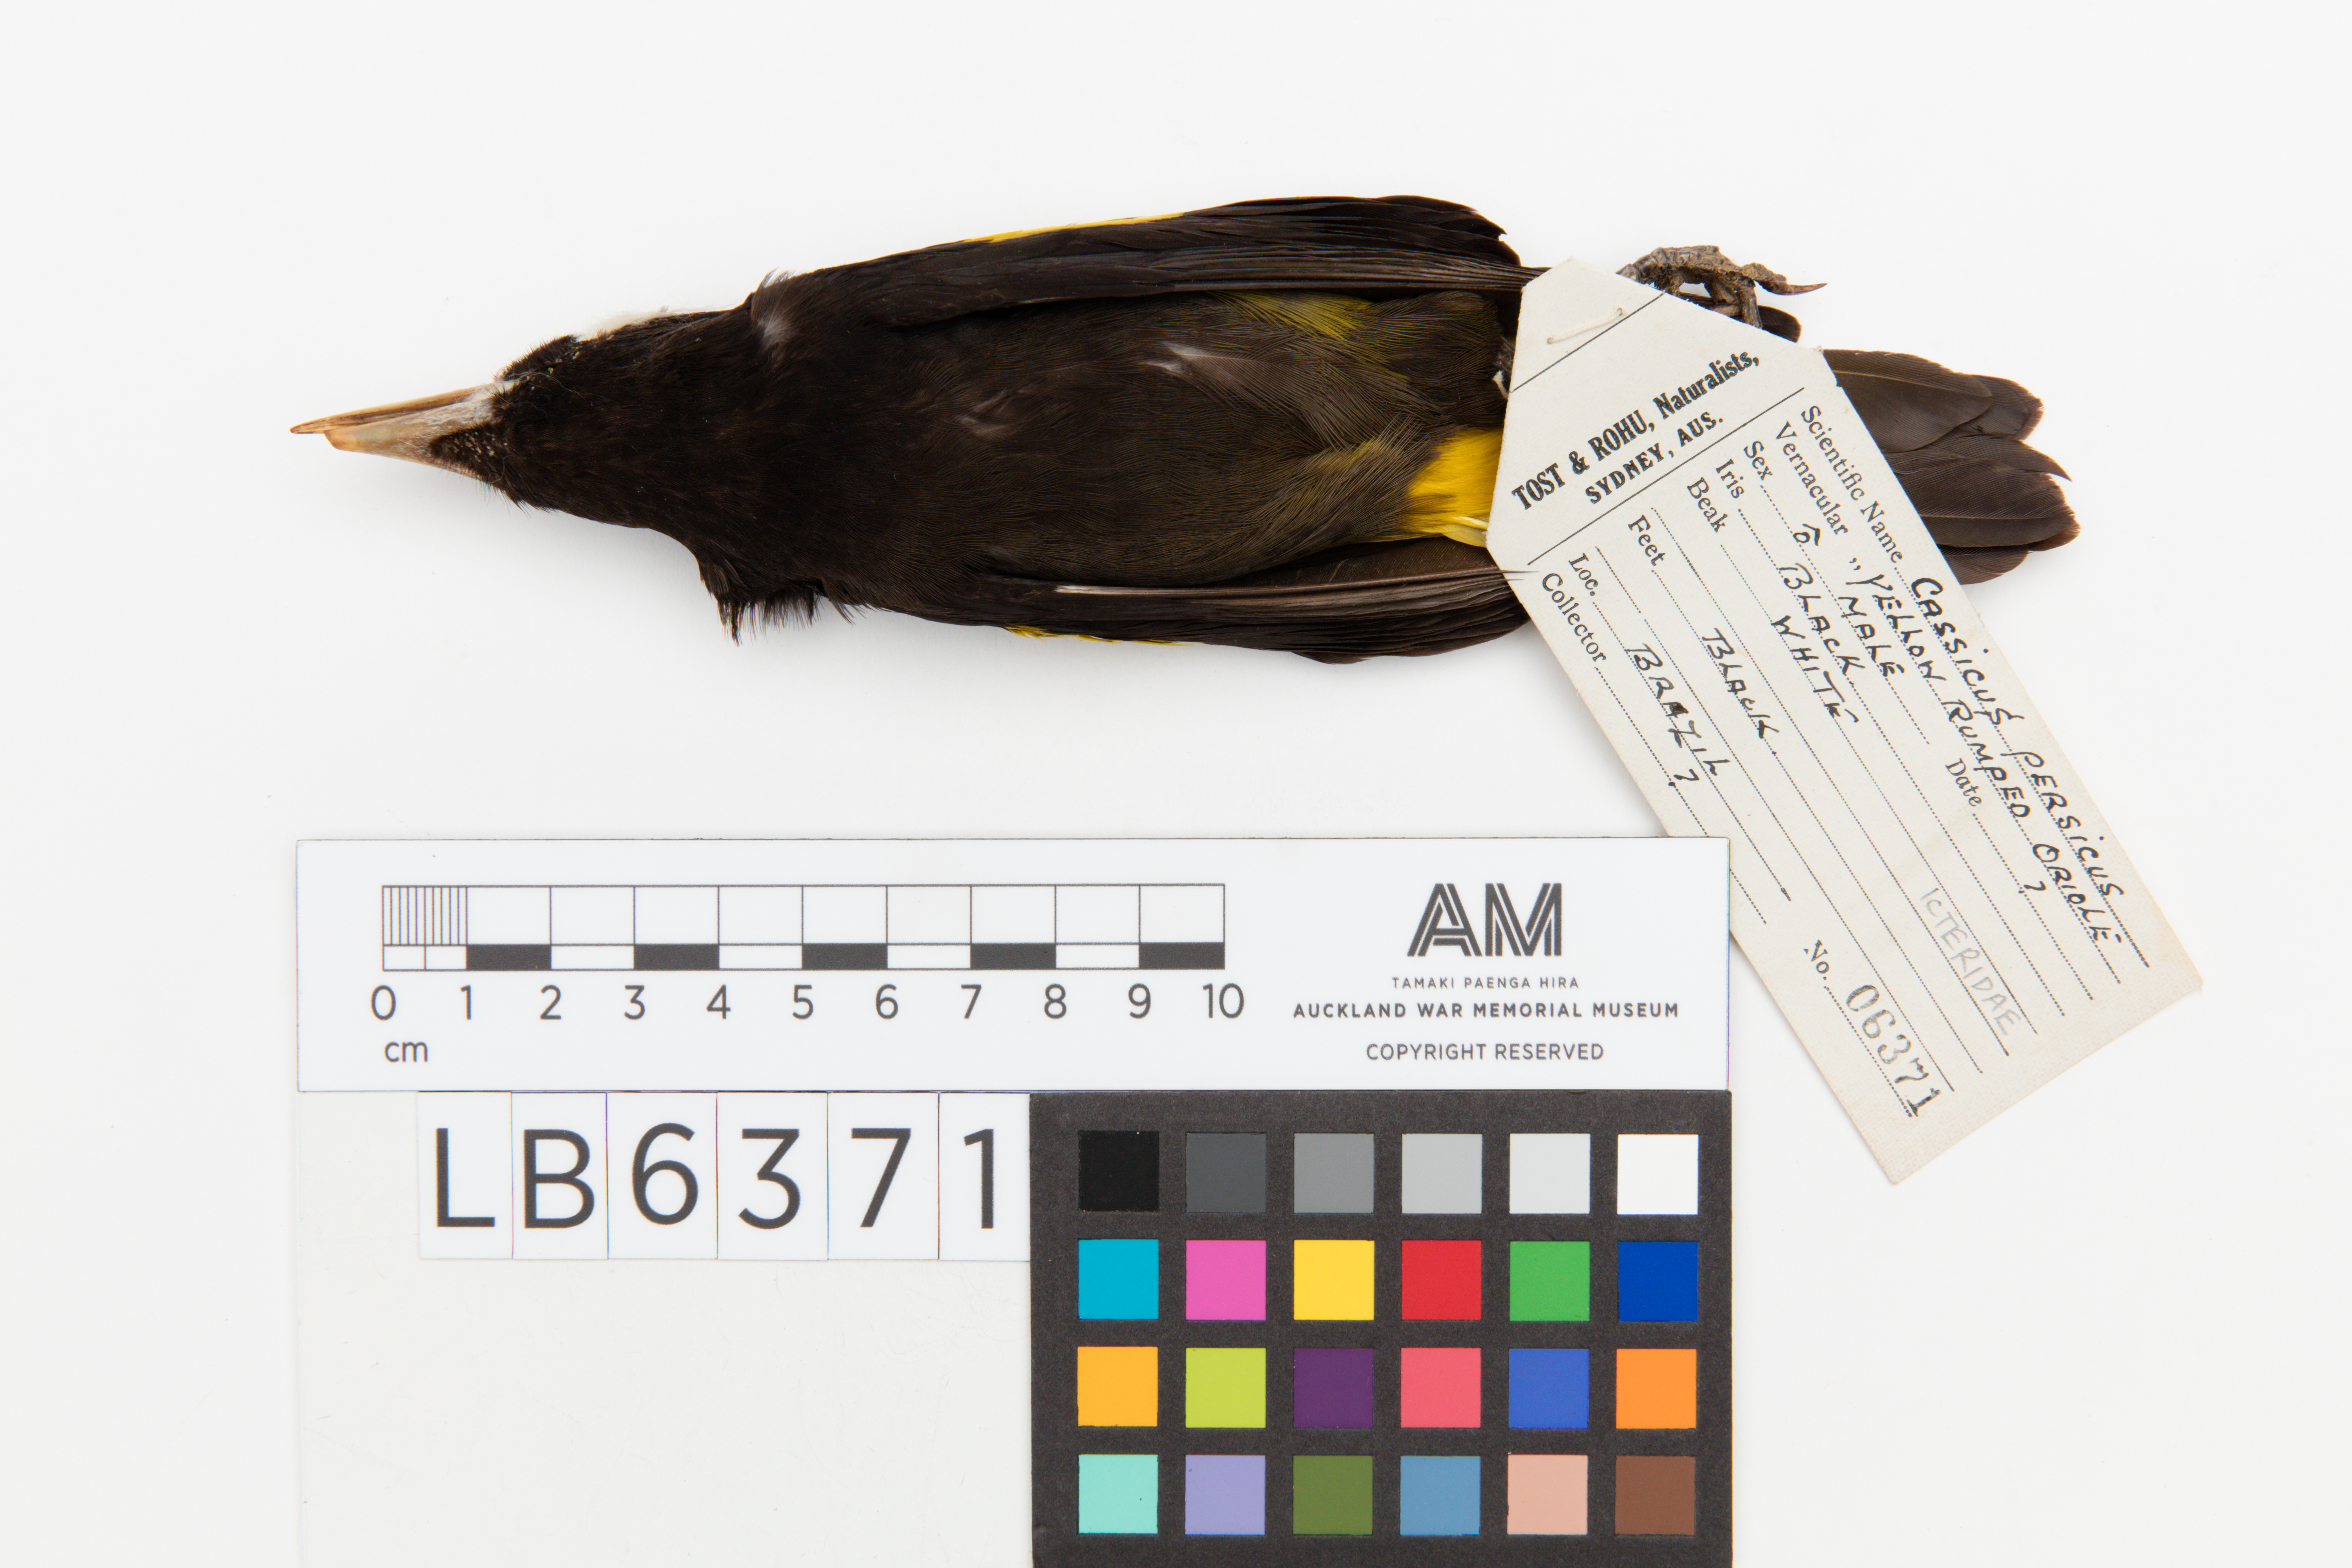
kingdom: Animalia
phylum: Chordata
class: Aves
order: Passeriformes
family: Icteridae
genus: Cacicus
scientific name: Cacicus cela
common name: Yellow-rumped cacique
